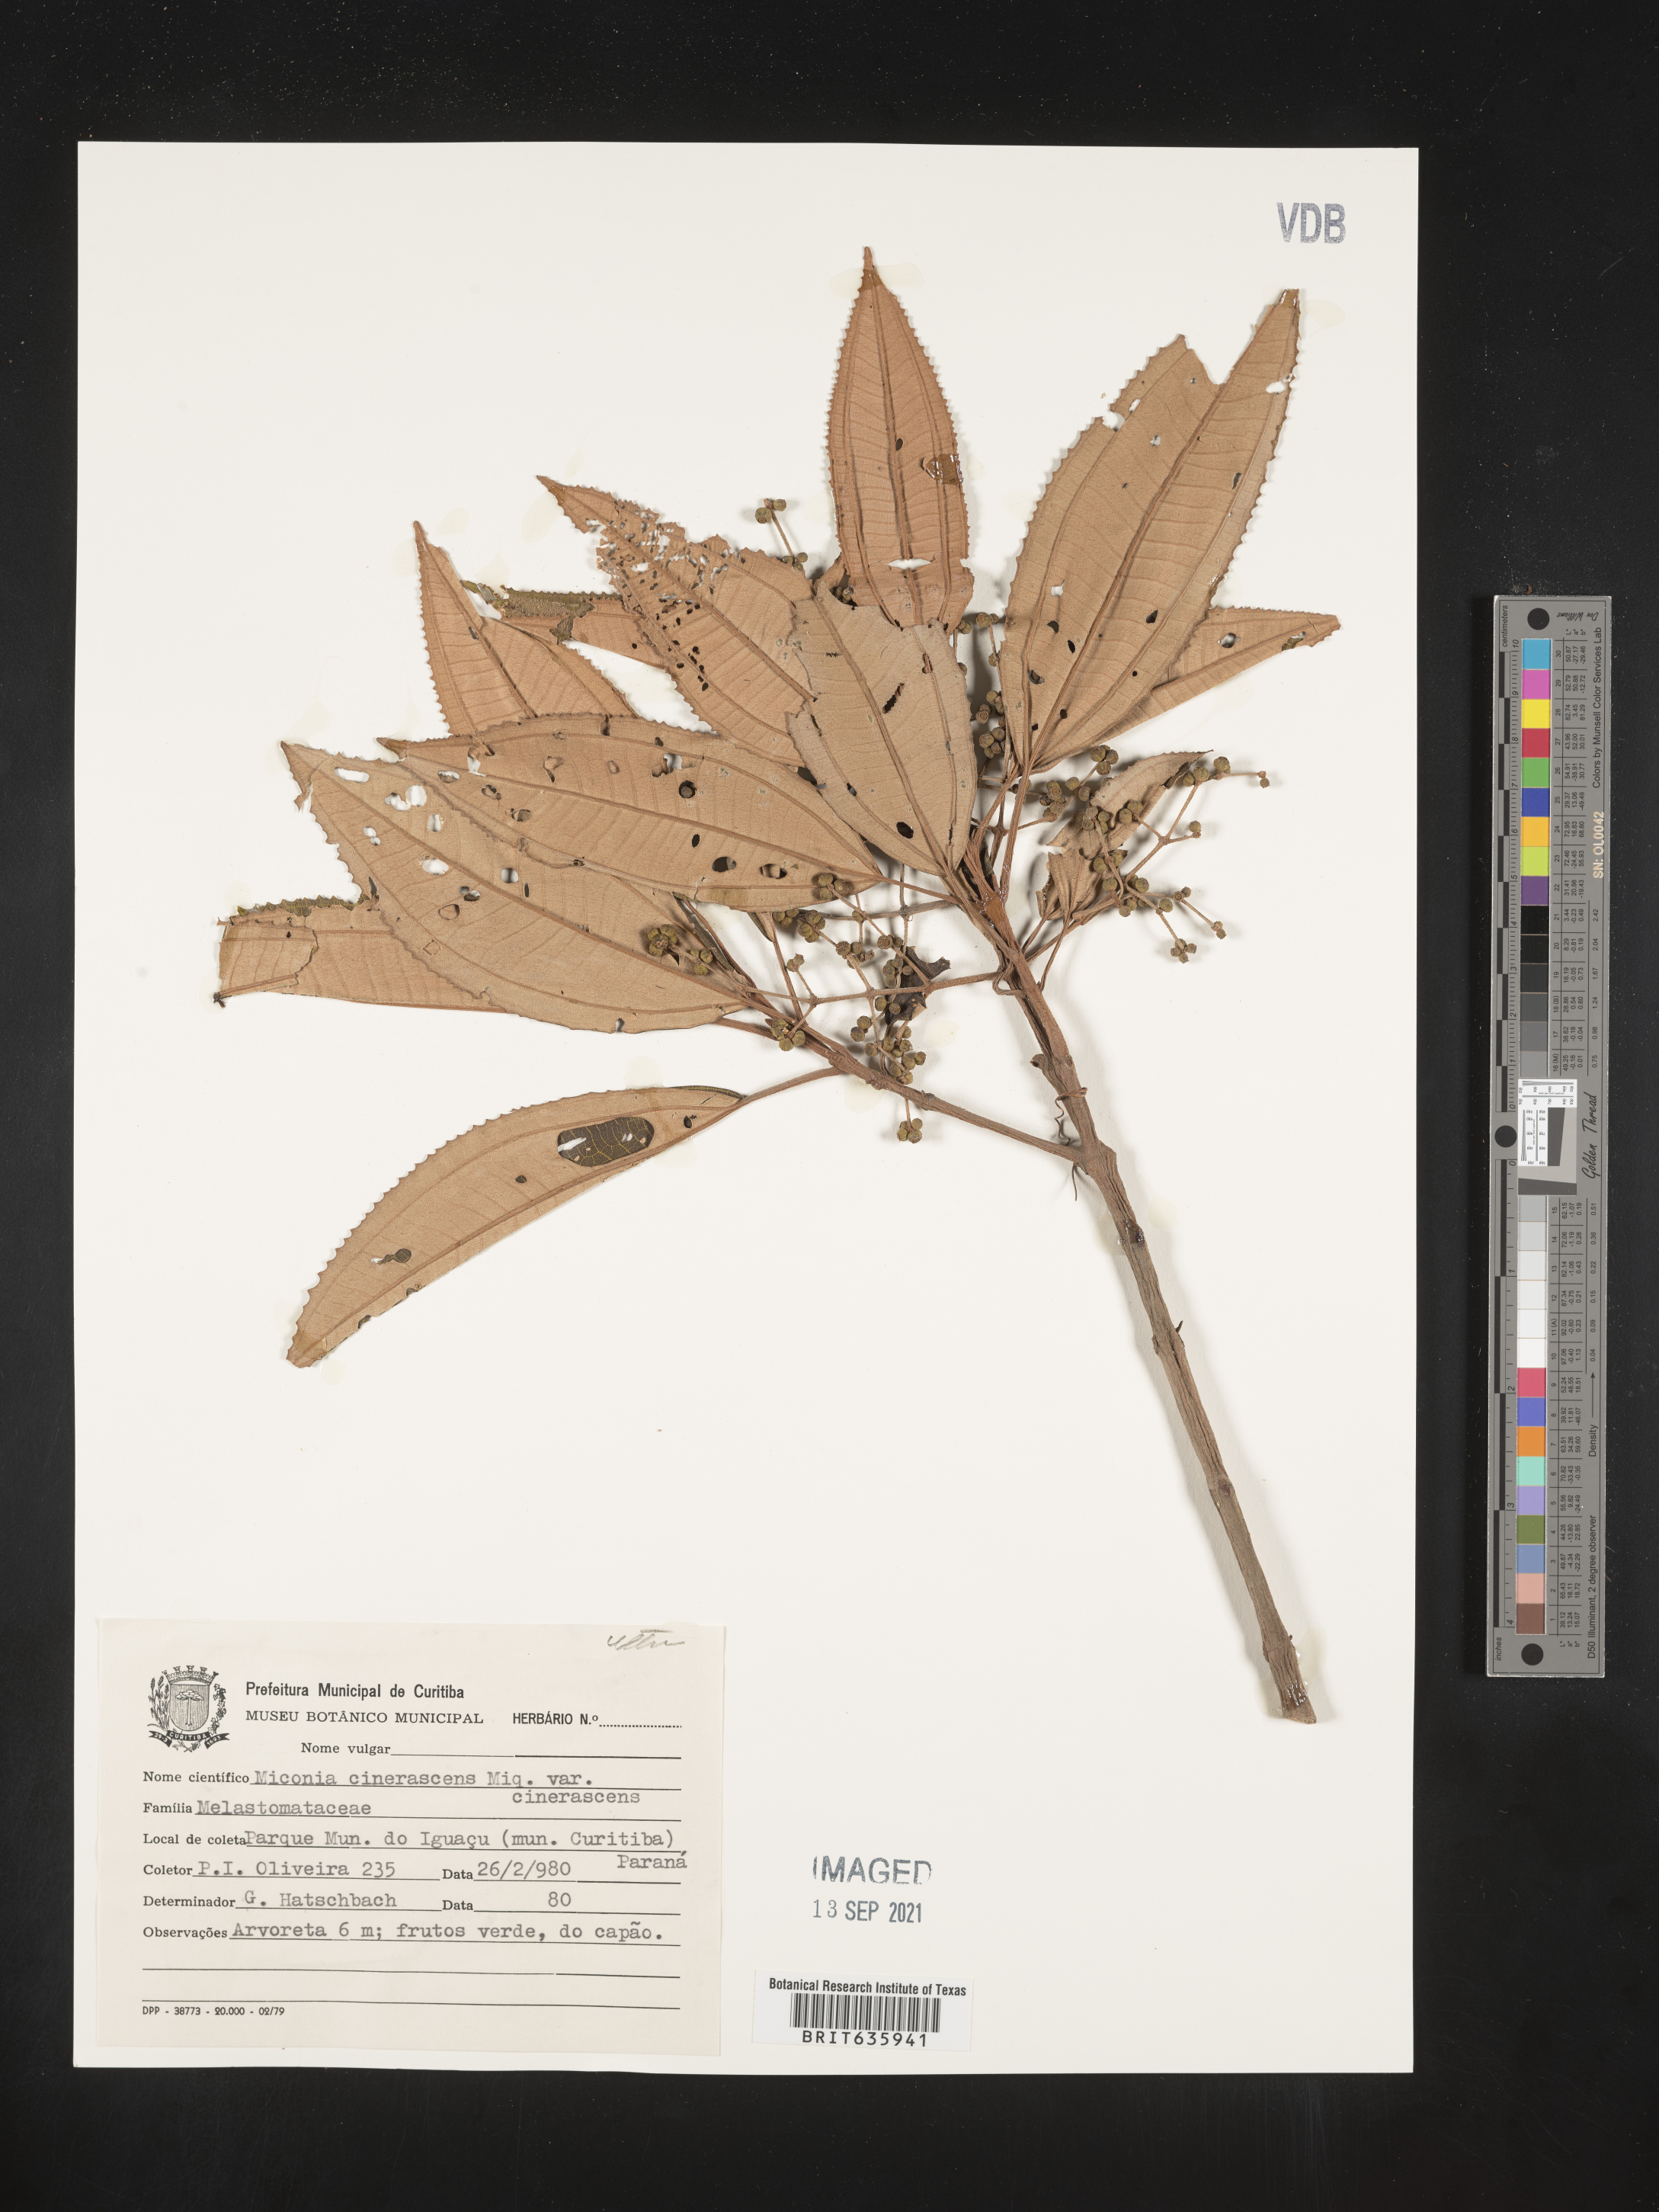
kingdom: Plantae
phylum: Tracheophyta
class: Magnoliopsida
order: Myrtales
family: Melastomataceae
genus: Miconia
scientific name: Miconia
